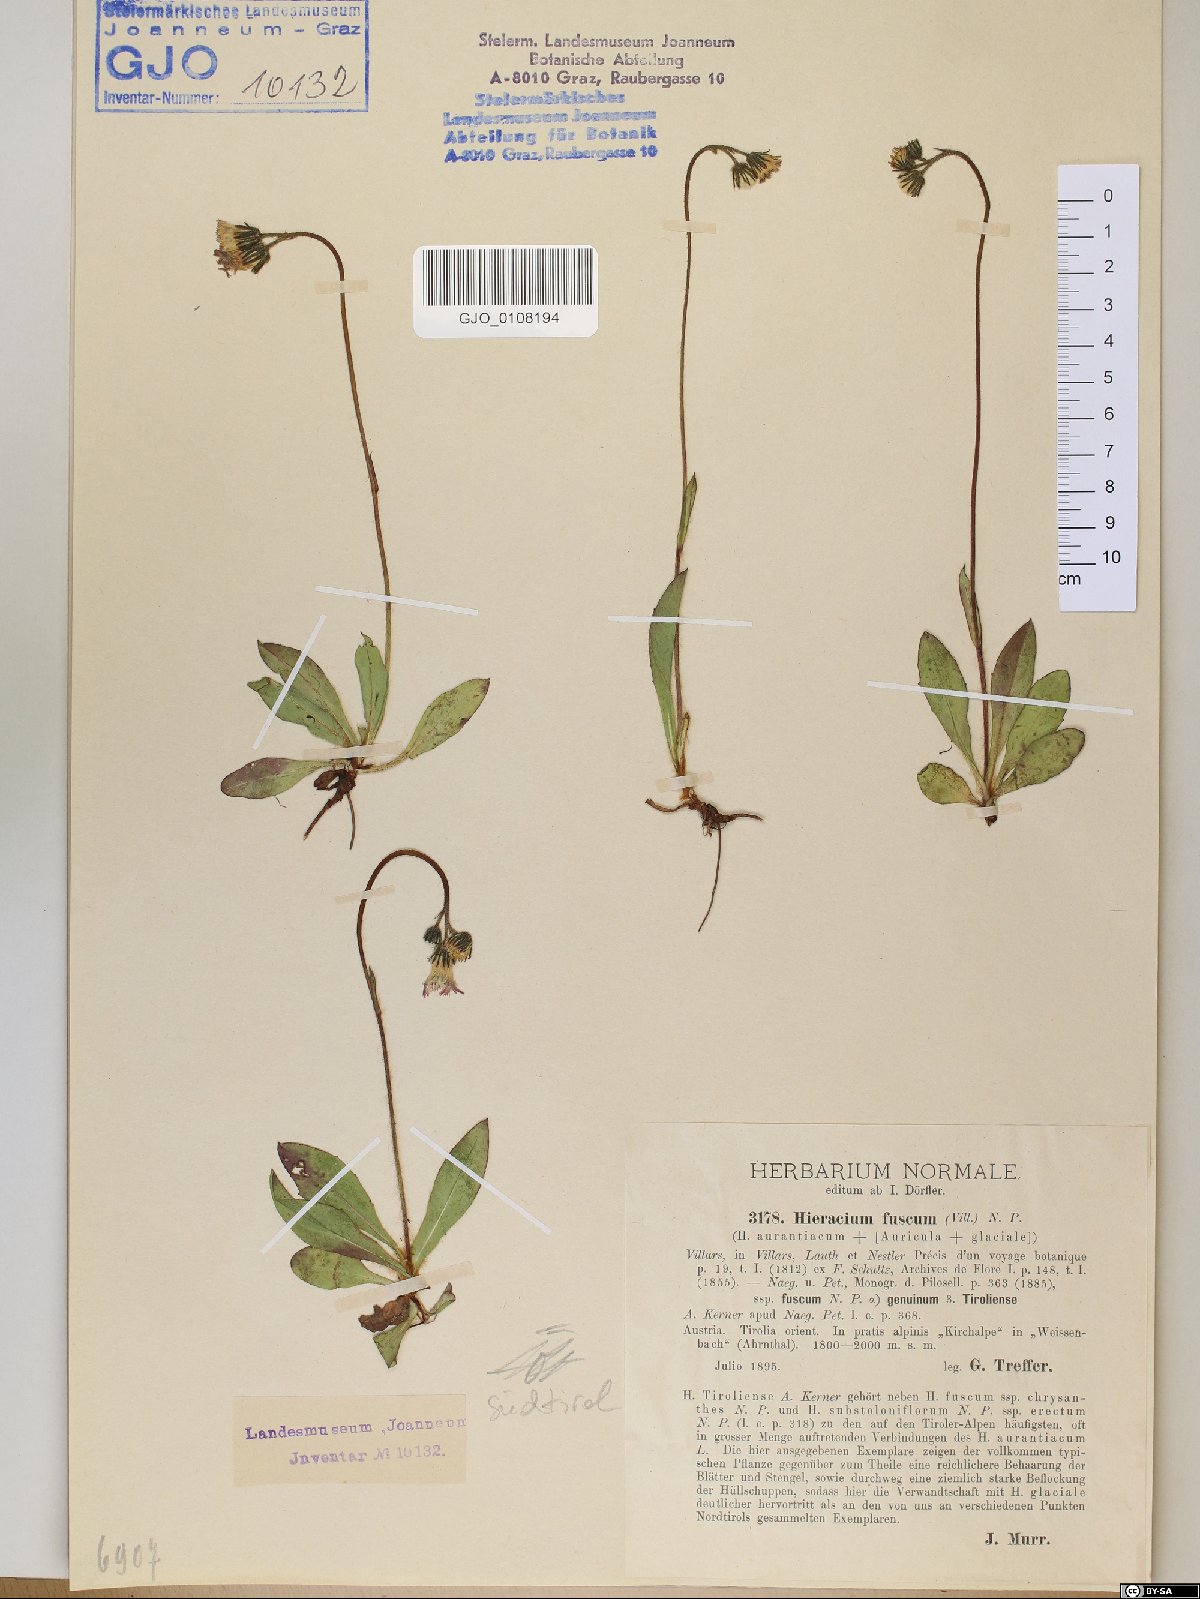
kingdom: Plantae
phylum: Tracheophyta
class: Magnoliopsida
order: Asterales
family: Asteraceae
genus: Pilosella
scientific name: Pilosella fusca
